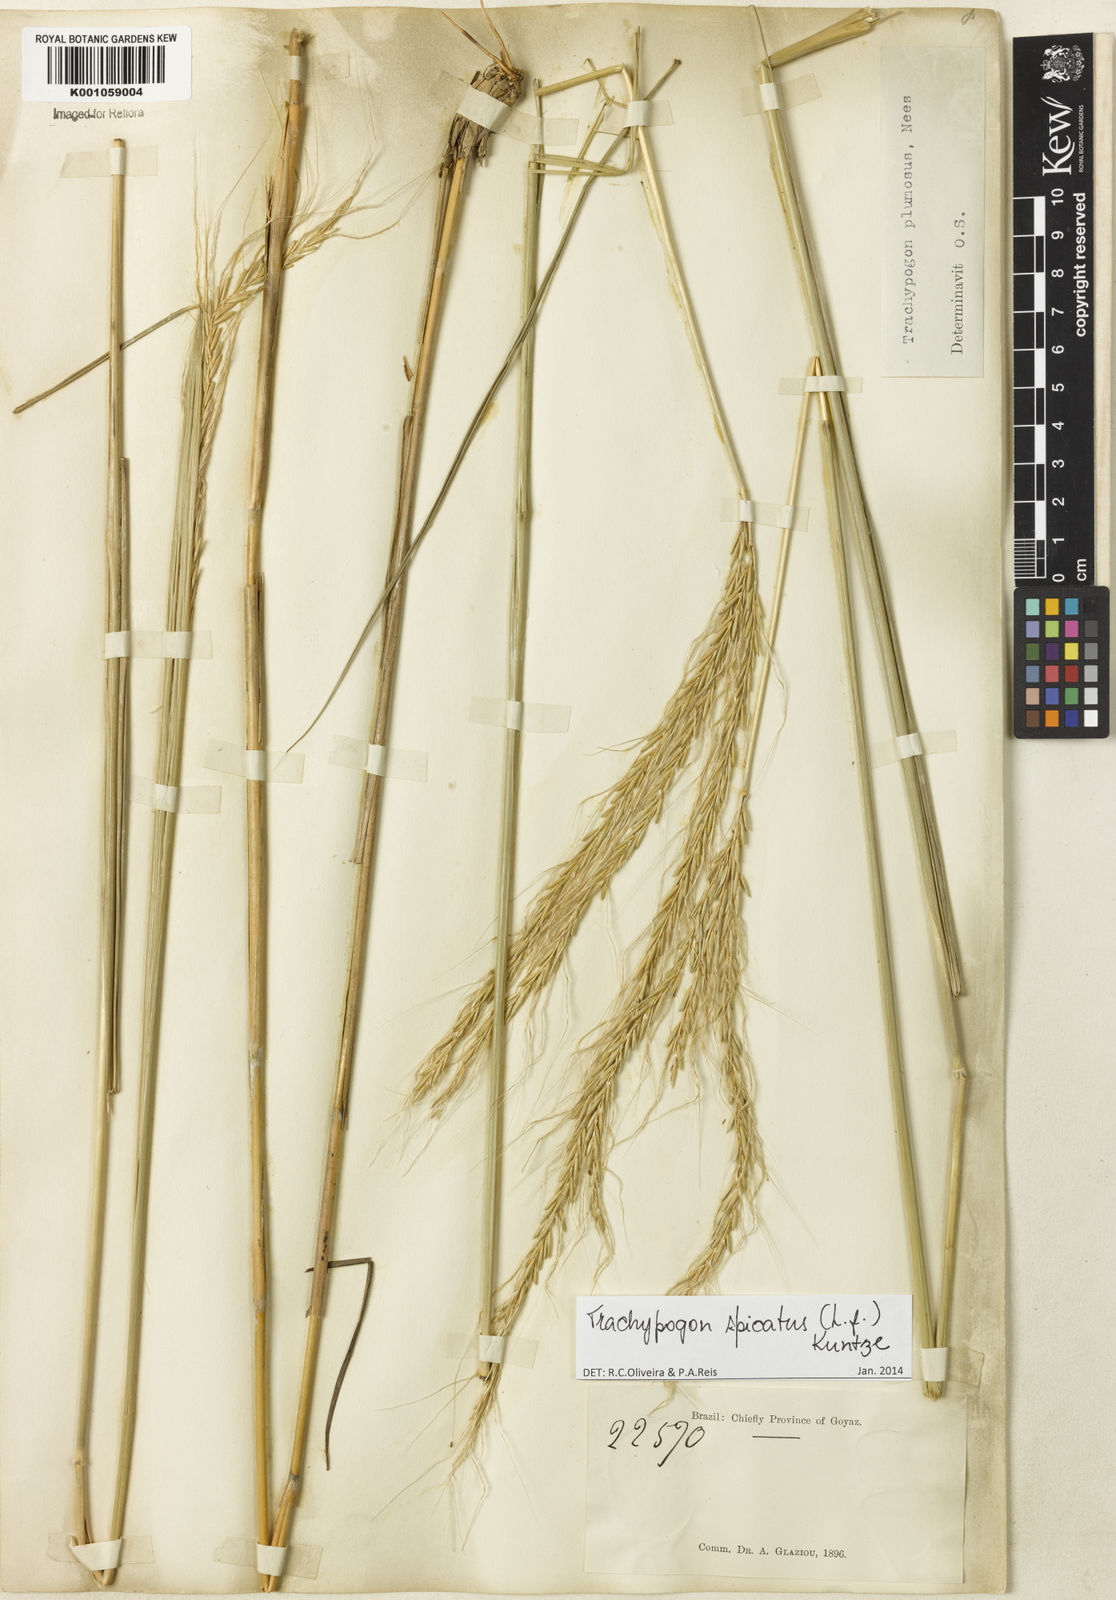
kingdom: Plantae
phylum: Tracheophyta
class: Liliopsida
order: Poales
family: Poaceae
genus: Trachypogon
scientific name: Trachypogon spicatus
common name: Crinkle-awn
